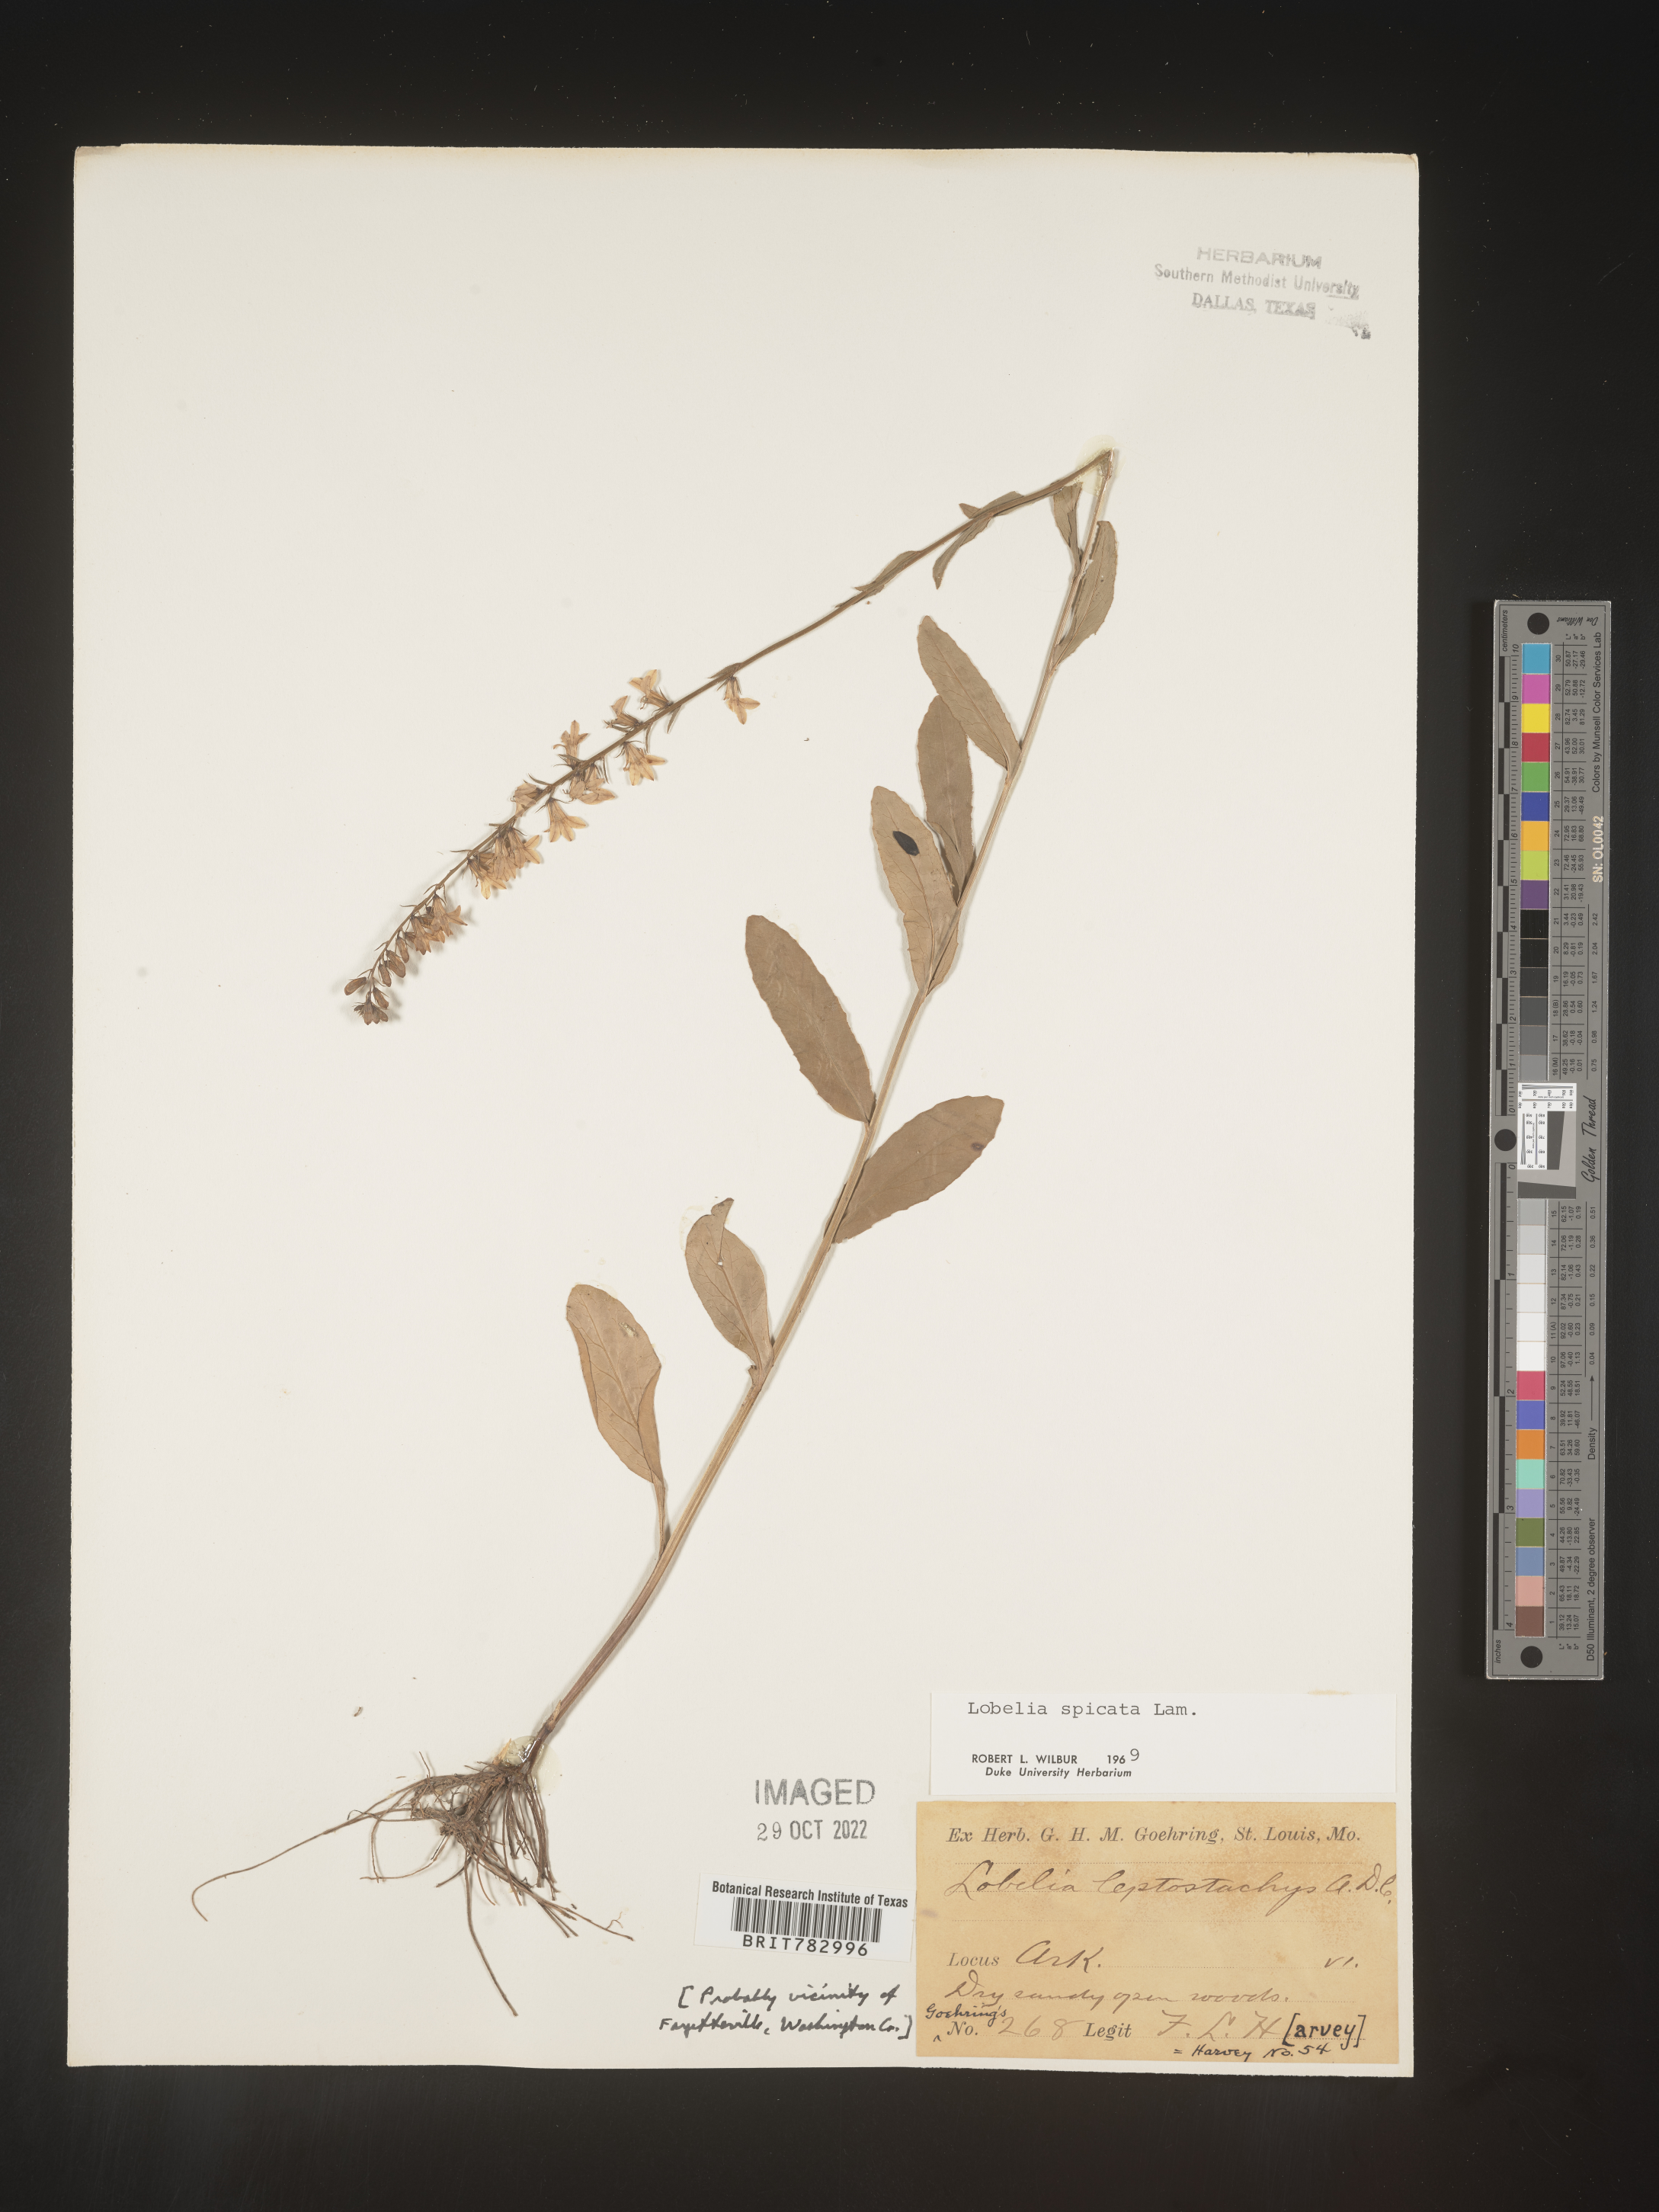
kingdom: Plantae
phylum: Tracheophyta
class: Magnoliopsida
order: Asterales
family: Campanulaceae
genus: Lobelia
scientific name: Lobelia spicata
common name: Pale-spike lobelia
